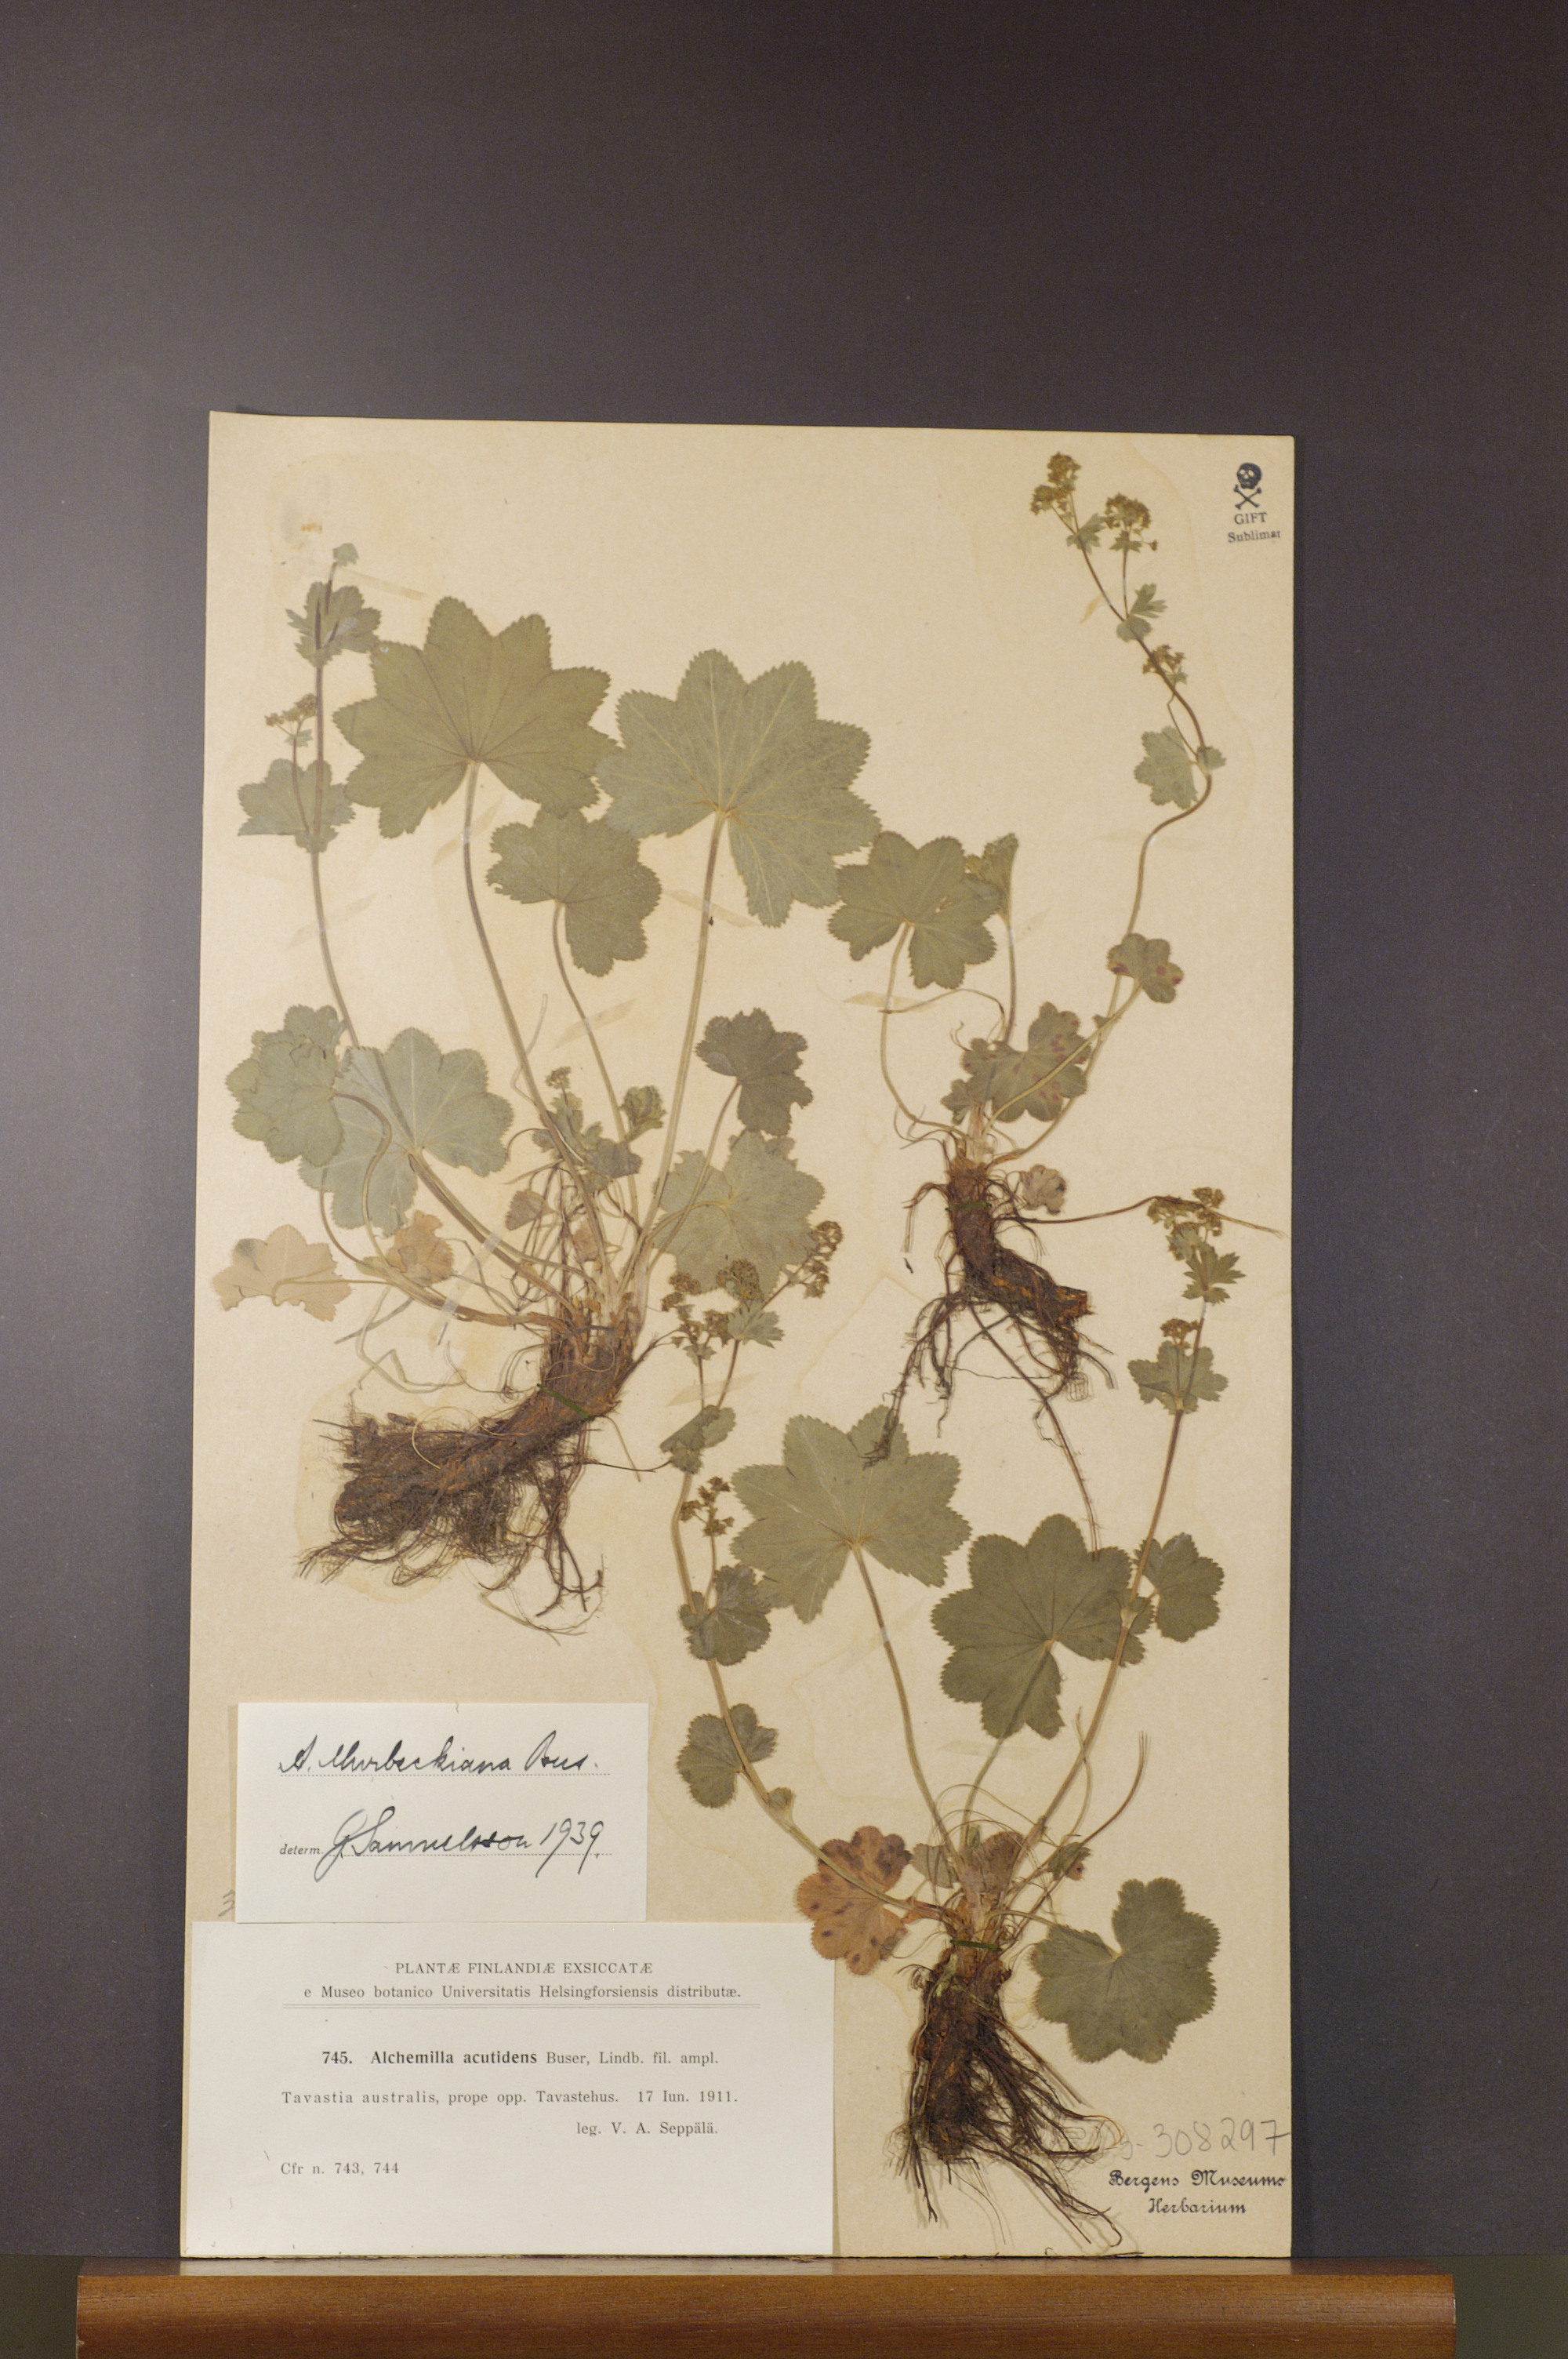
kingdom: Plantae
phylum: Tracheophyta
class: Magnoliopsida
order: Rosales
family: Rosaceae
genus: Alchemilla
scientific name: Alchemilla murbeckiana
